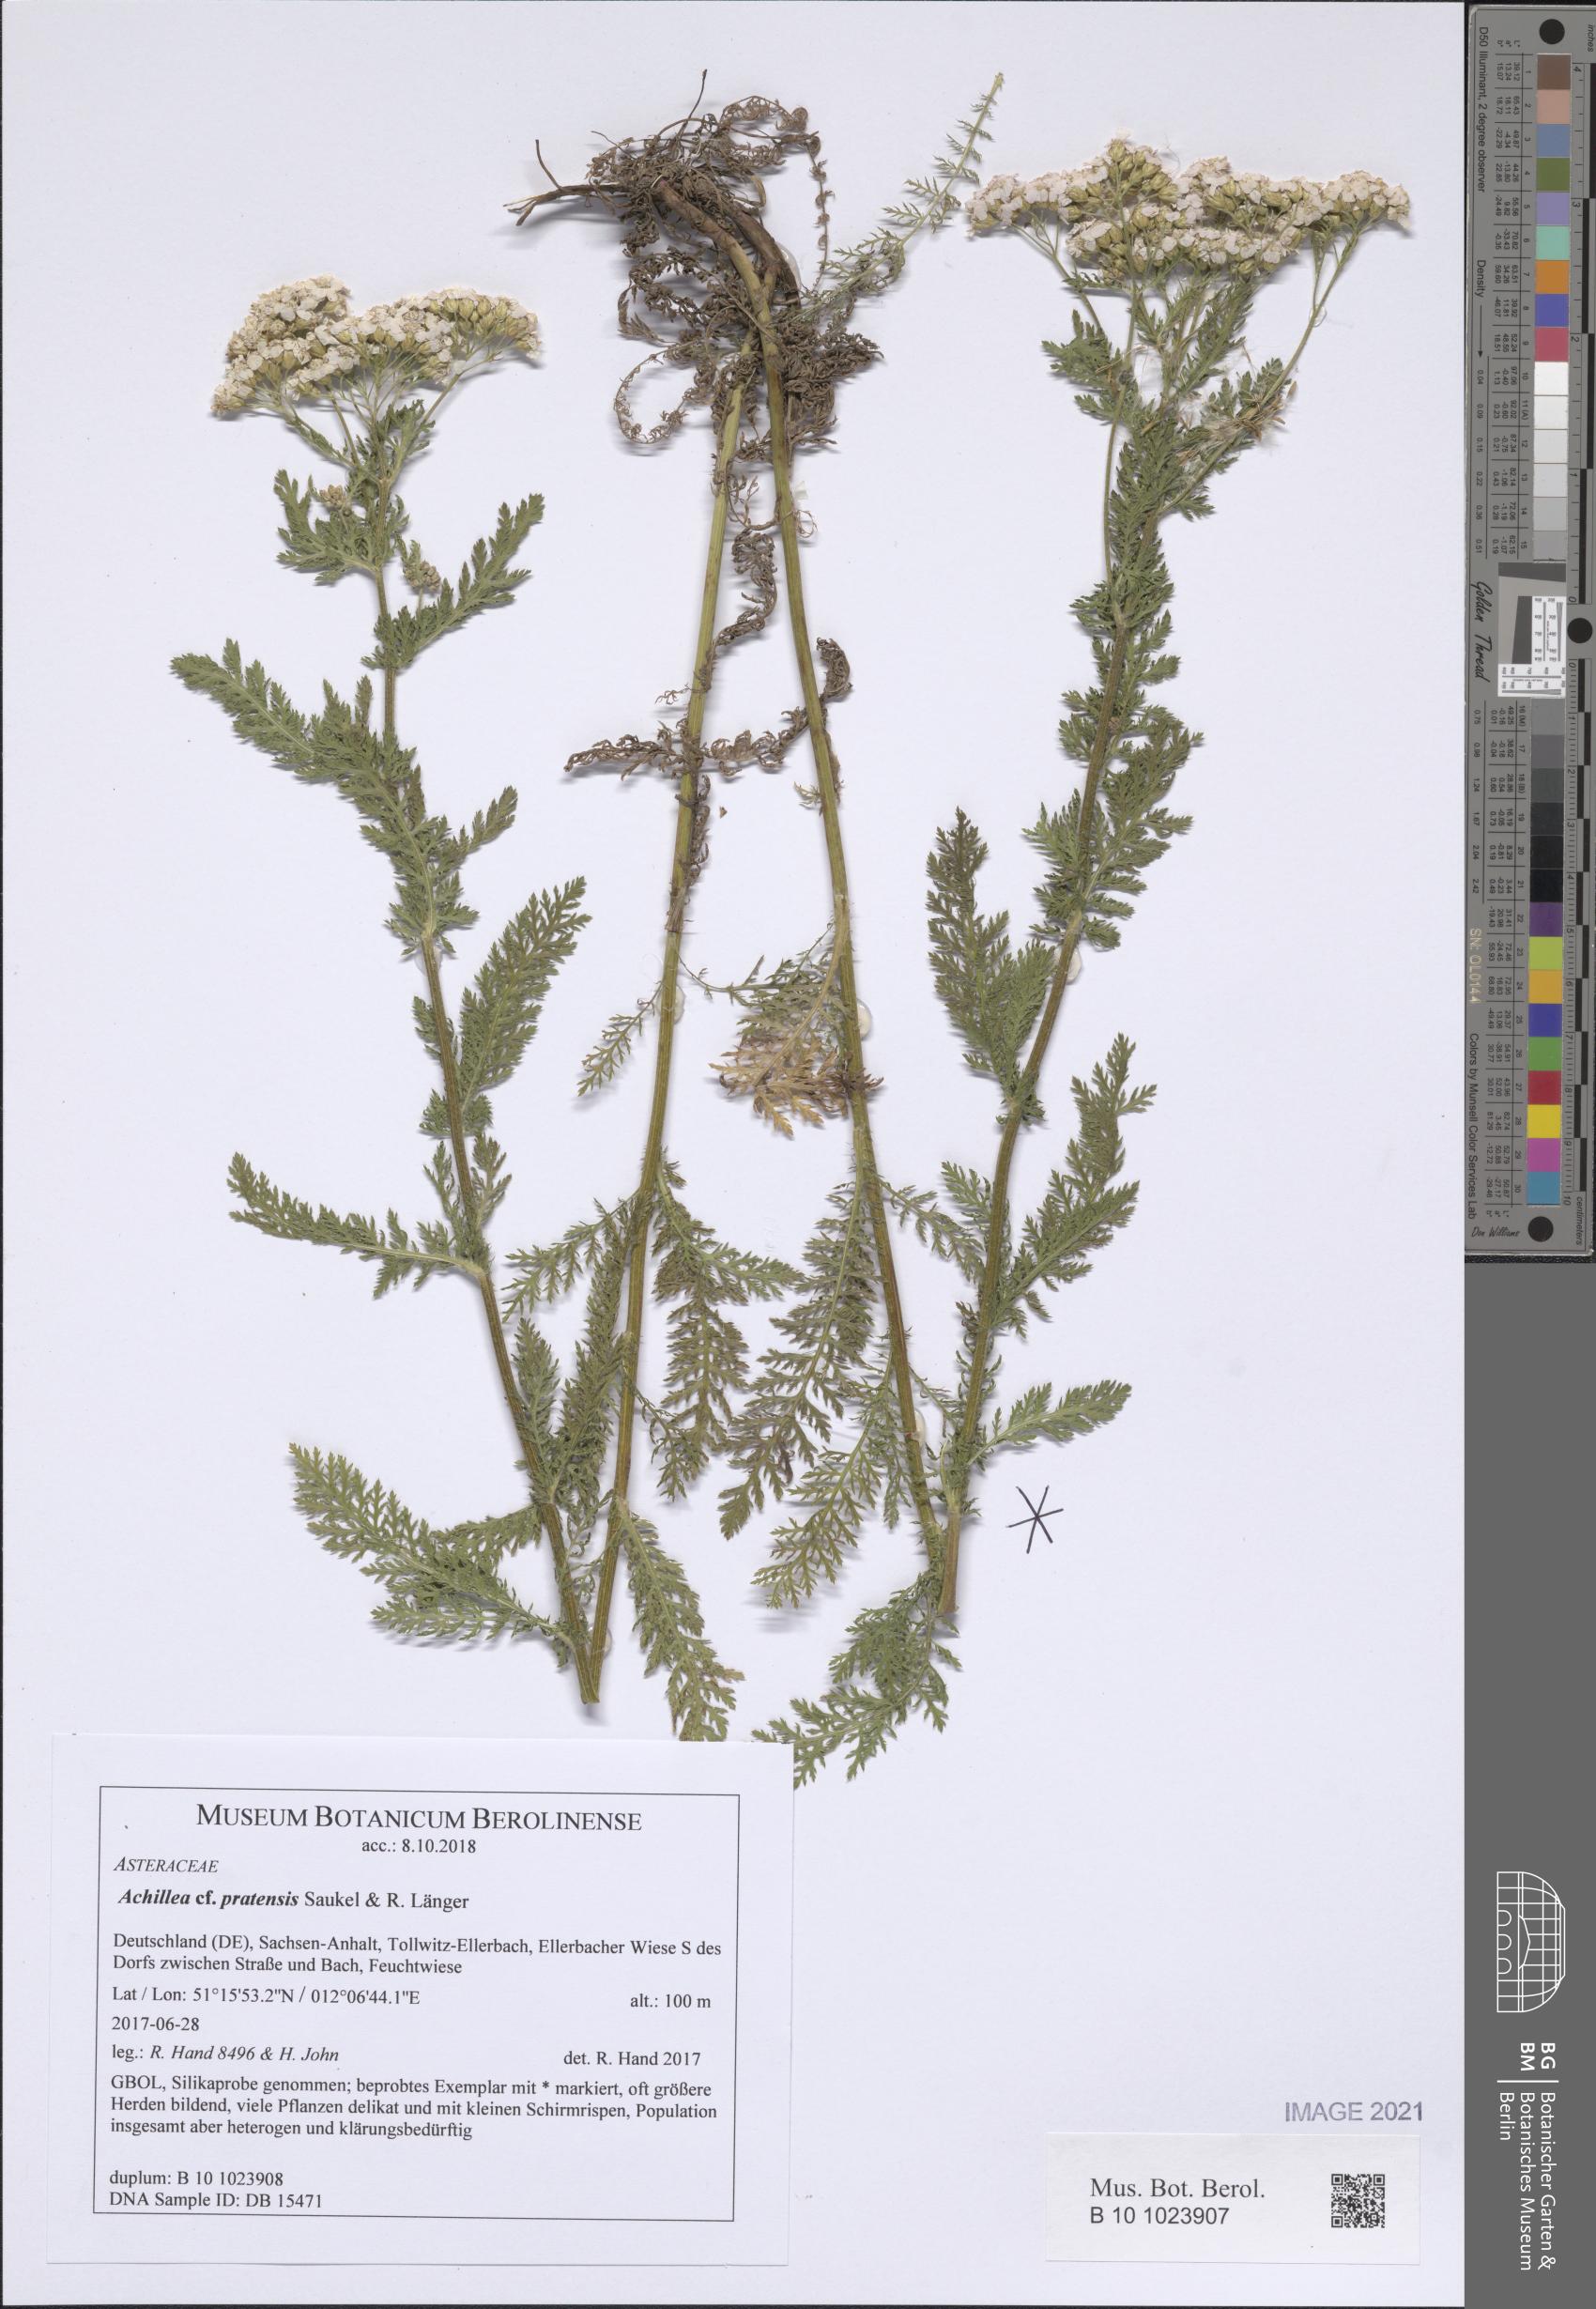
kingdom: Plantae
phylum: Tracheophyta
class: Magnoliopsida
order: Asterales
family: Asteraceae
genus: Achillea
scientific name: Achillea pratensis
